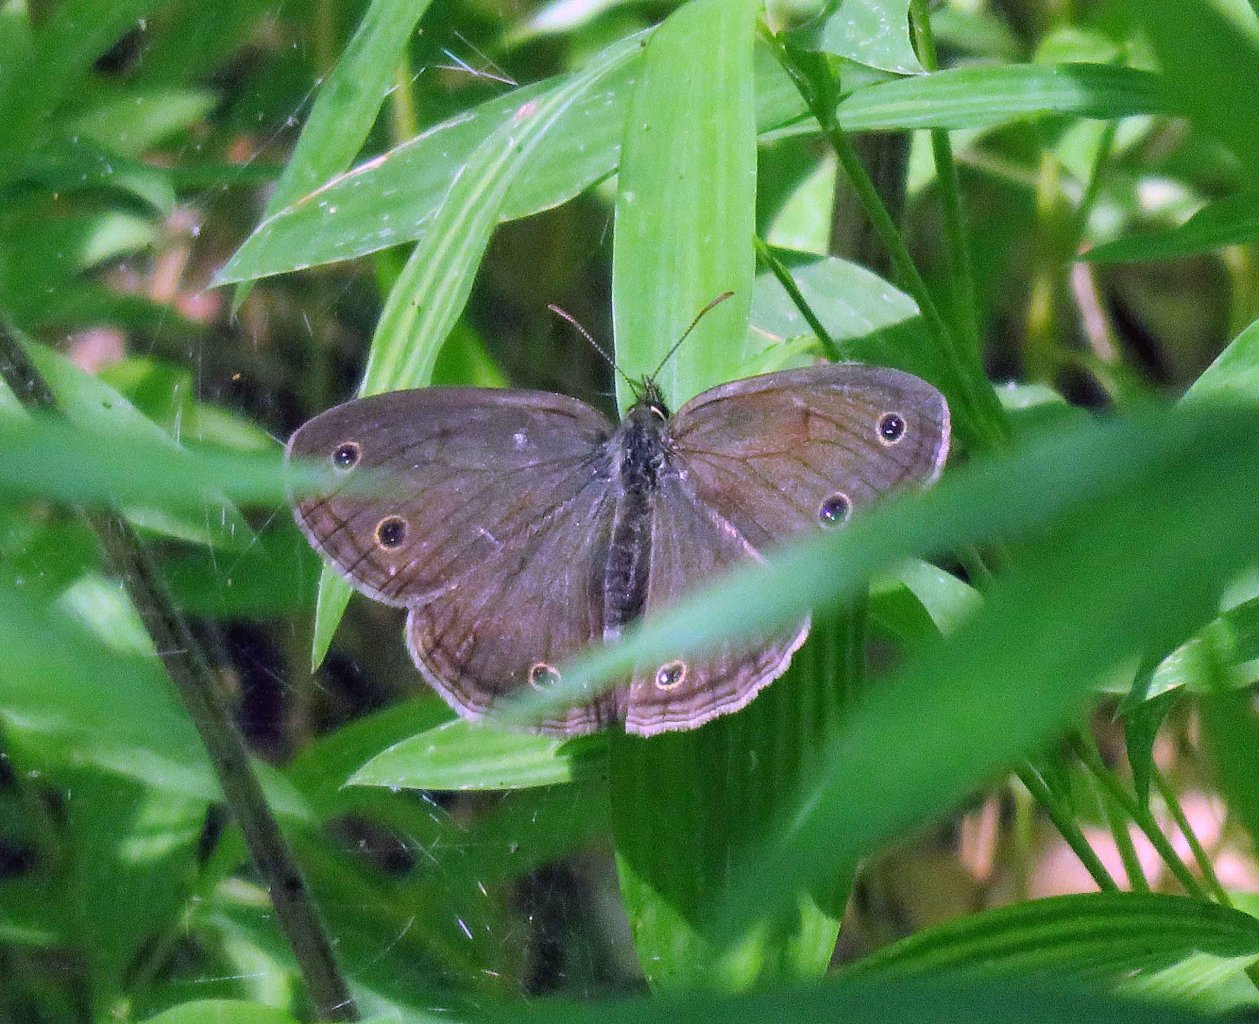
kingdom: Animalia
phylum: Arthropoda
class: Insecta
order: Lepidoptera
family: Nymphalidae
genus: Euptychia
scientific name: Euptychia cymela
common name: Little Wood Satyr
